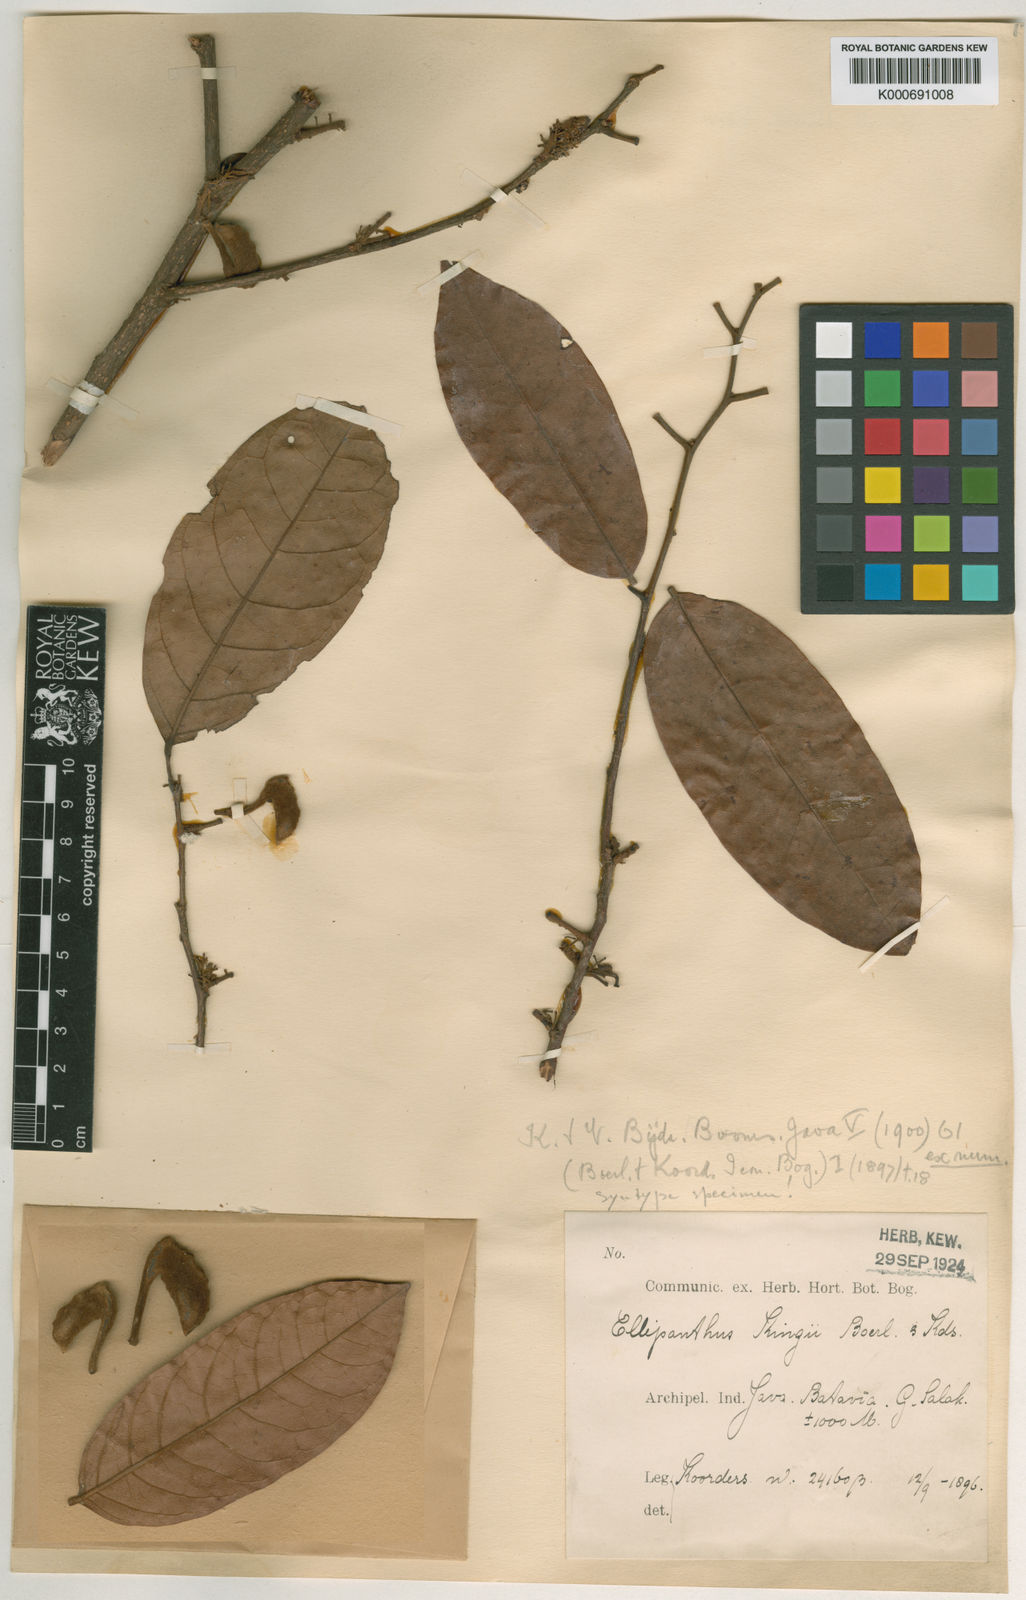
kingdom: Plantae
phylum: Tracheophyta
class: Magnoliopsida
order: Oxalidales
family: Connaraceae
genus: Ellipanthus
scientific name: Ellipanthus tomentosus
